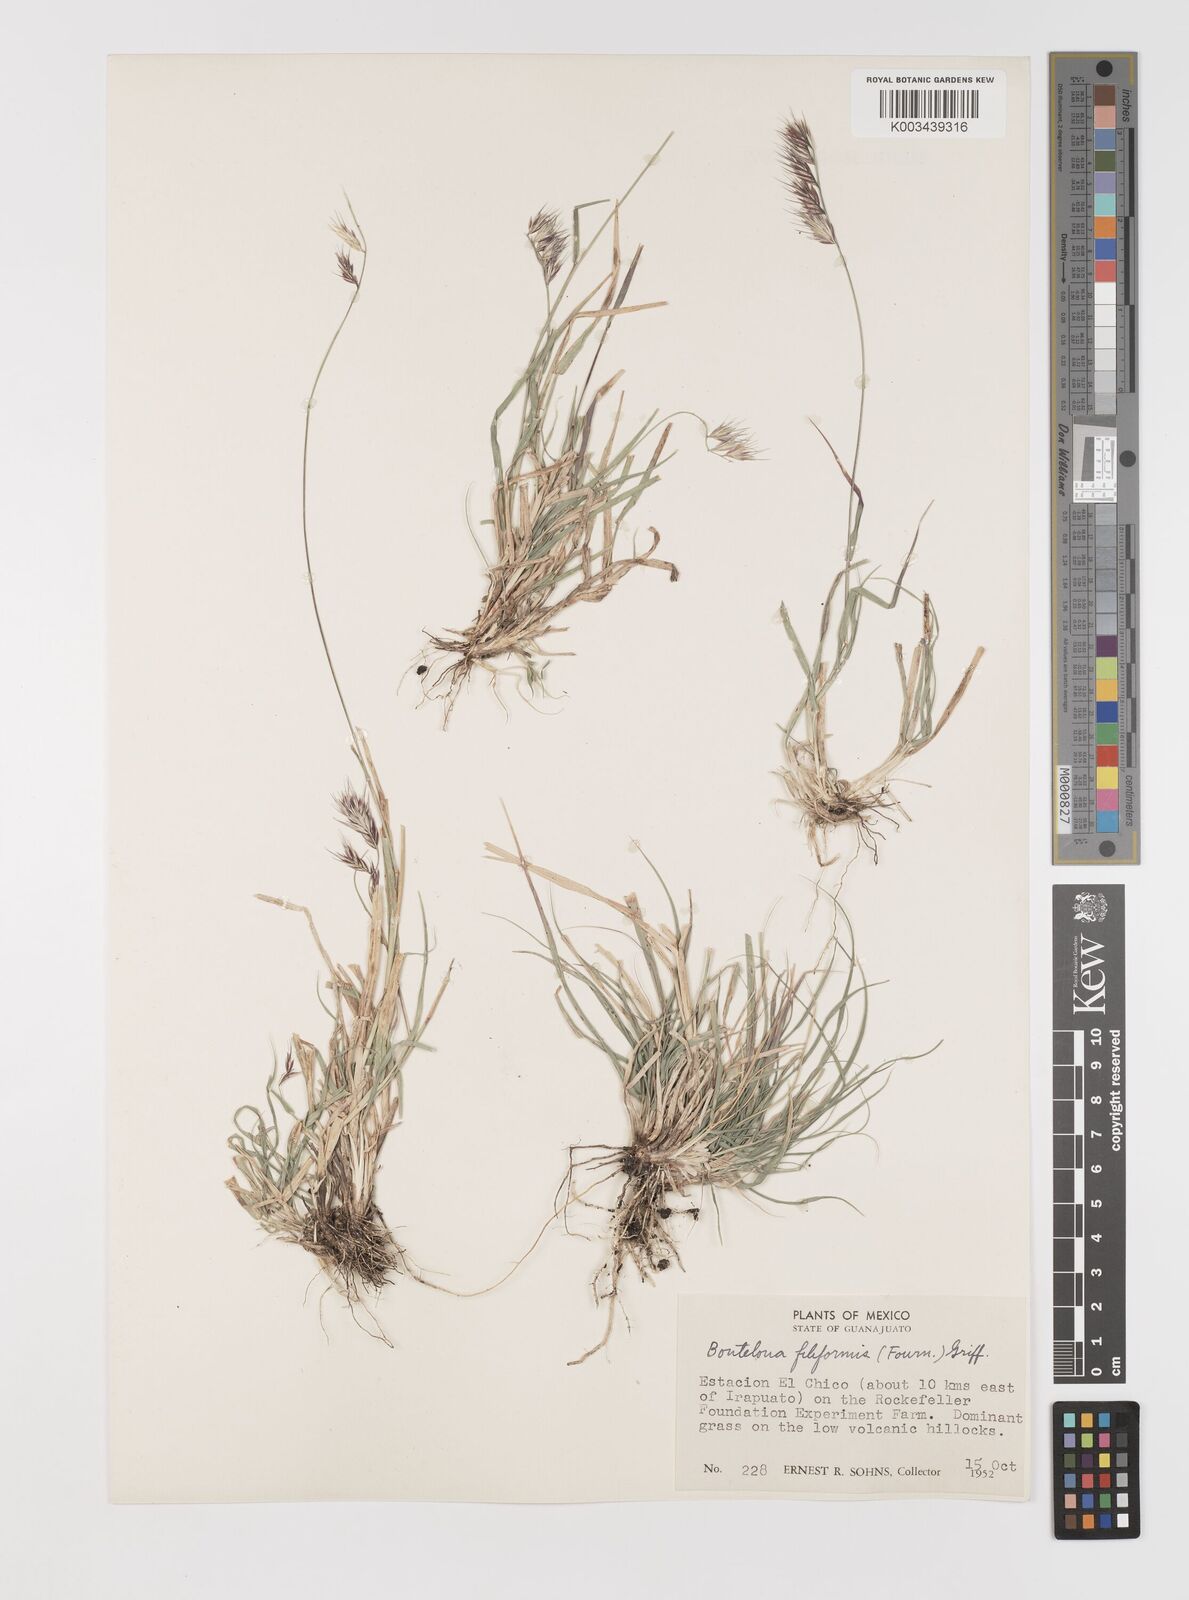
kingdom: Plantae
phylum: Tracheophyta
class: Liliopsida
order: Poales
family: Poaceae
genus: Bouteloua
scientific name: Bouteloua repens
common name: Slender grama
